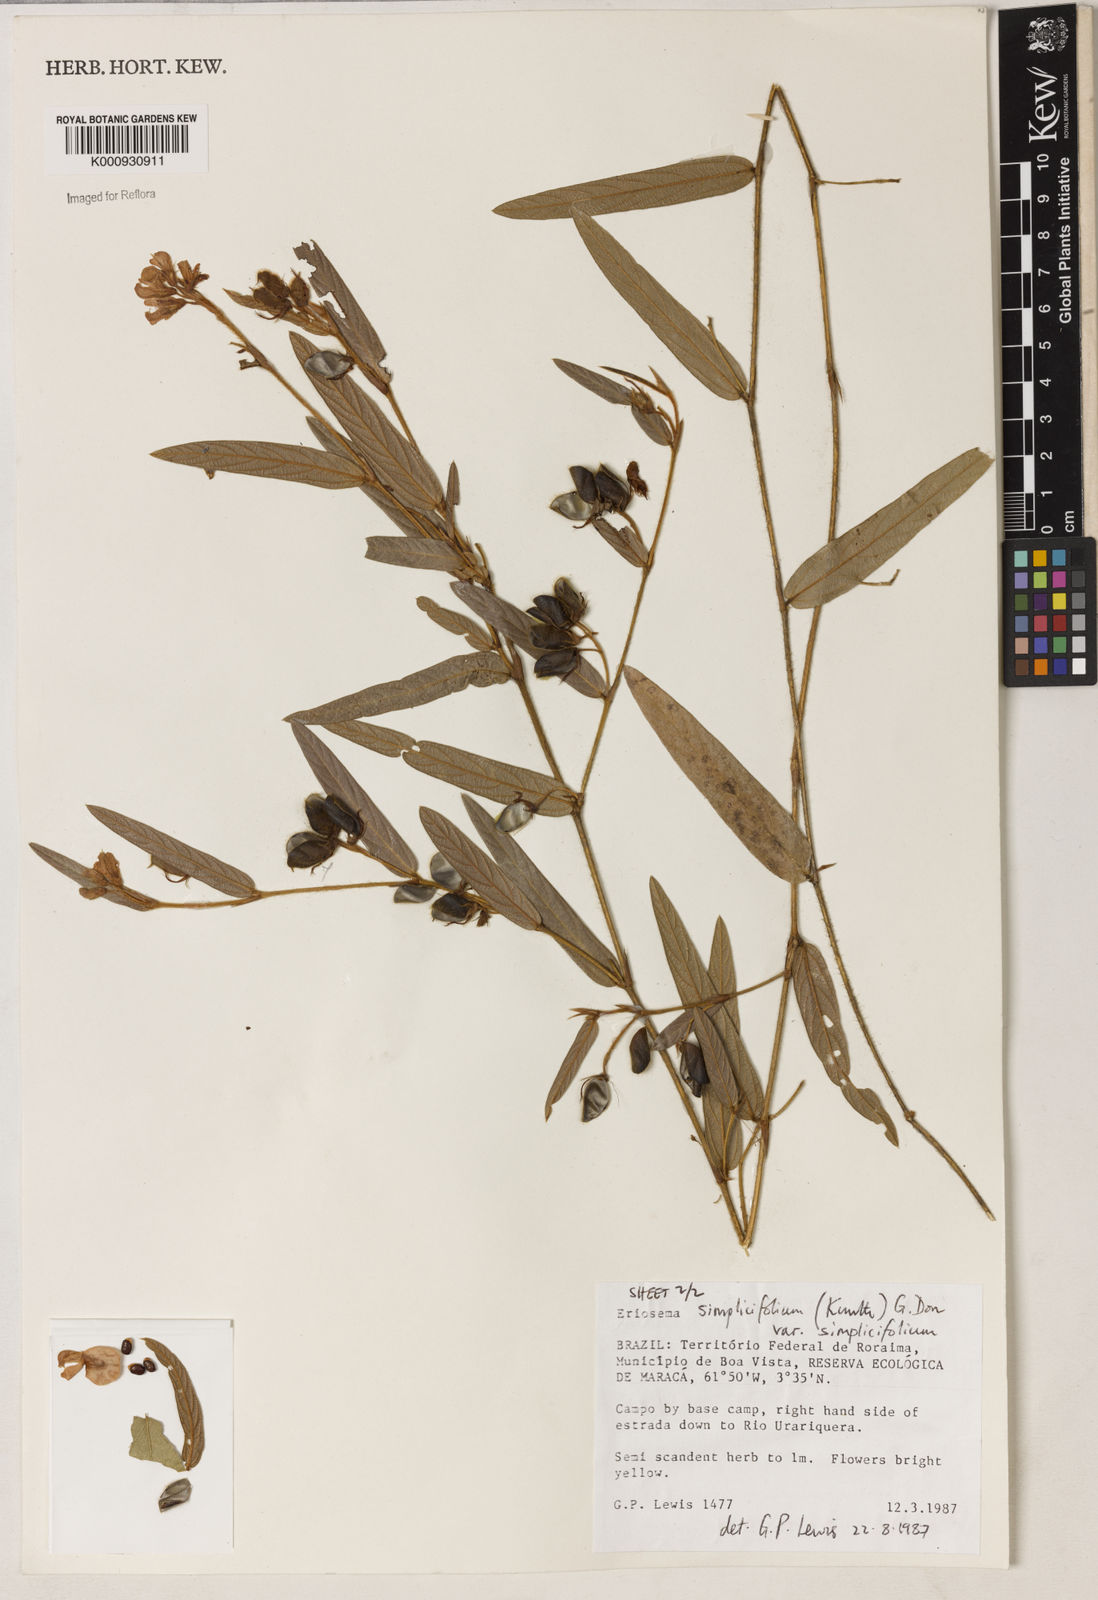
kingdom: Plantae
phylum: Tracheophyta
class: Magnoliopsida
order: Fabales
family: Fabaceae
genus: Eriosema
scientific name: Eriosema simplicifolium
